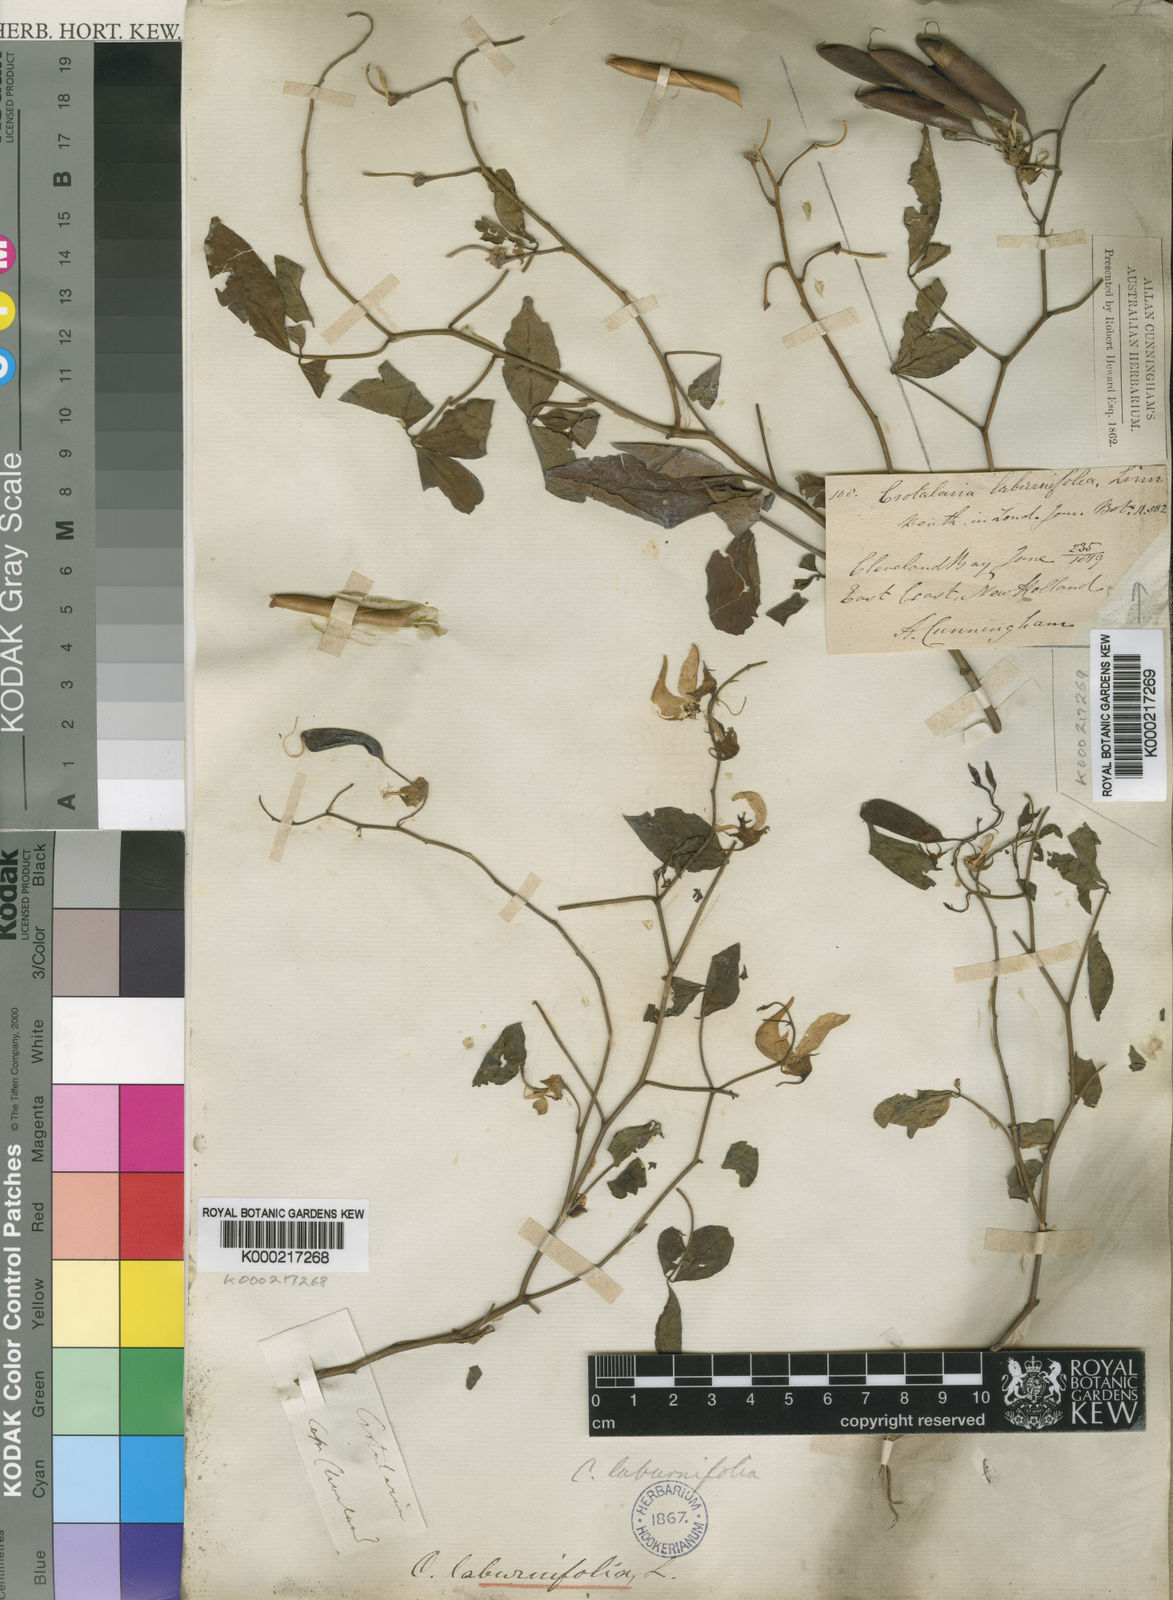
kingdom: Plantae
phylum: Tracheophyta
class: Magnoliopsida
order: Fabales
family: Fabaceae
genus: Crotalaria
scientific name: Crotalaria laburnifolia
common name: Birdflower
